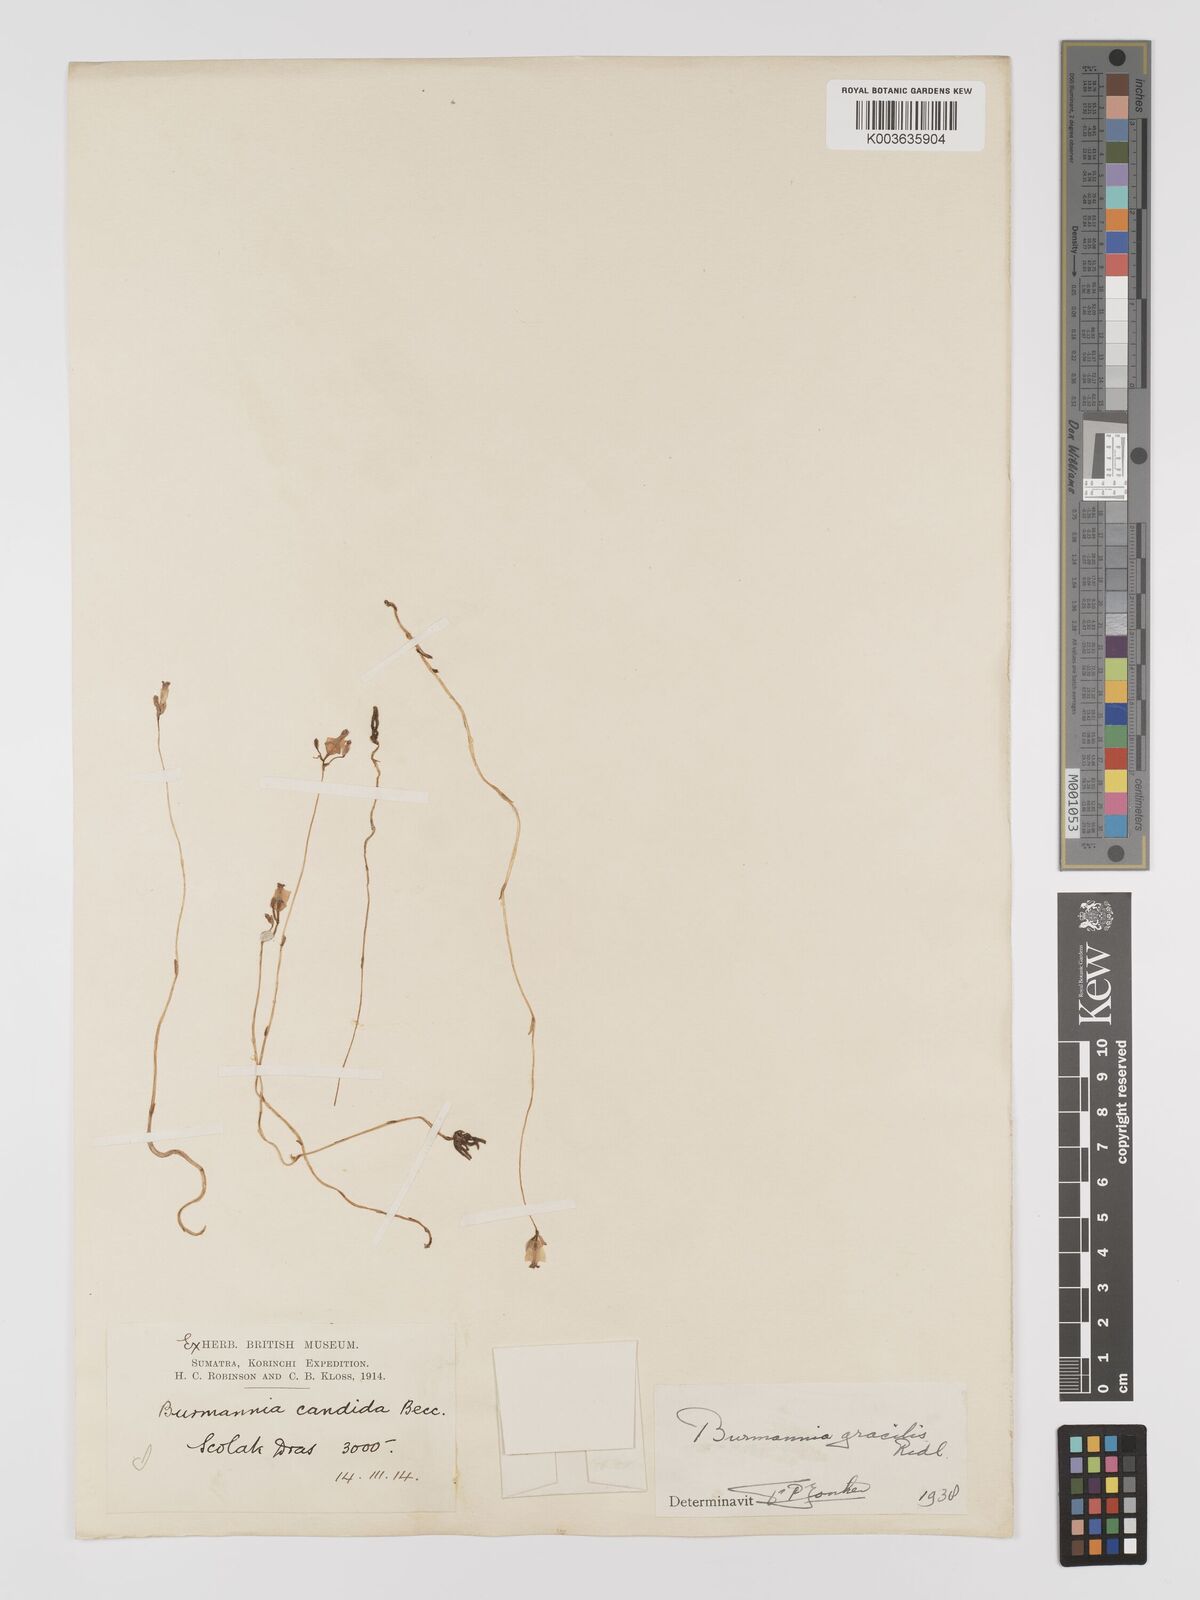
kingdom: Plantae
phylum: Tracheophyta
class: Liliopsida
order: Dioscoreales
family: Burmanniaceae
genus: Burmannia
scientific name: Burmannia lutescens
